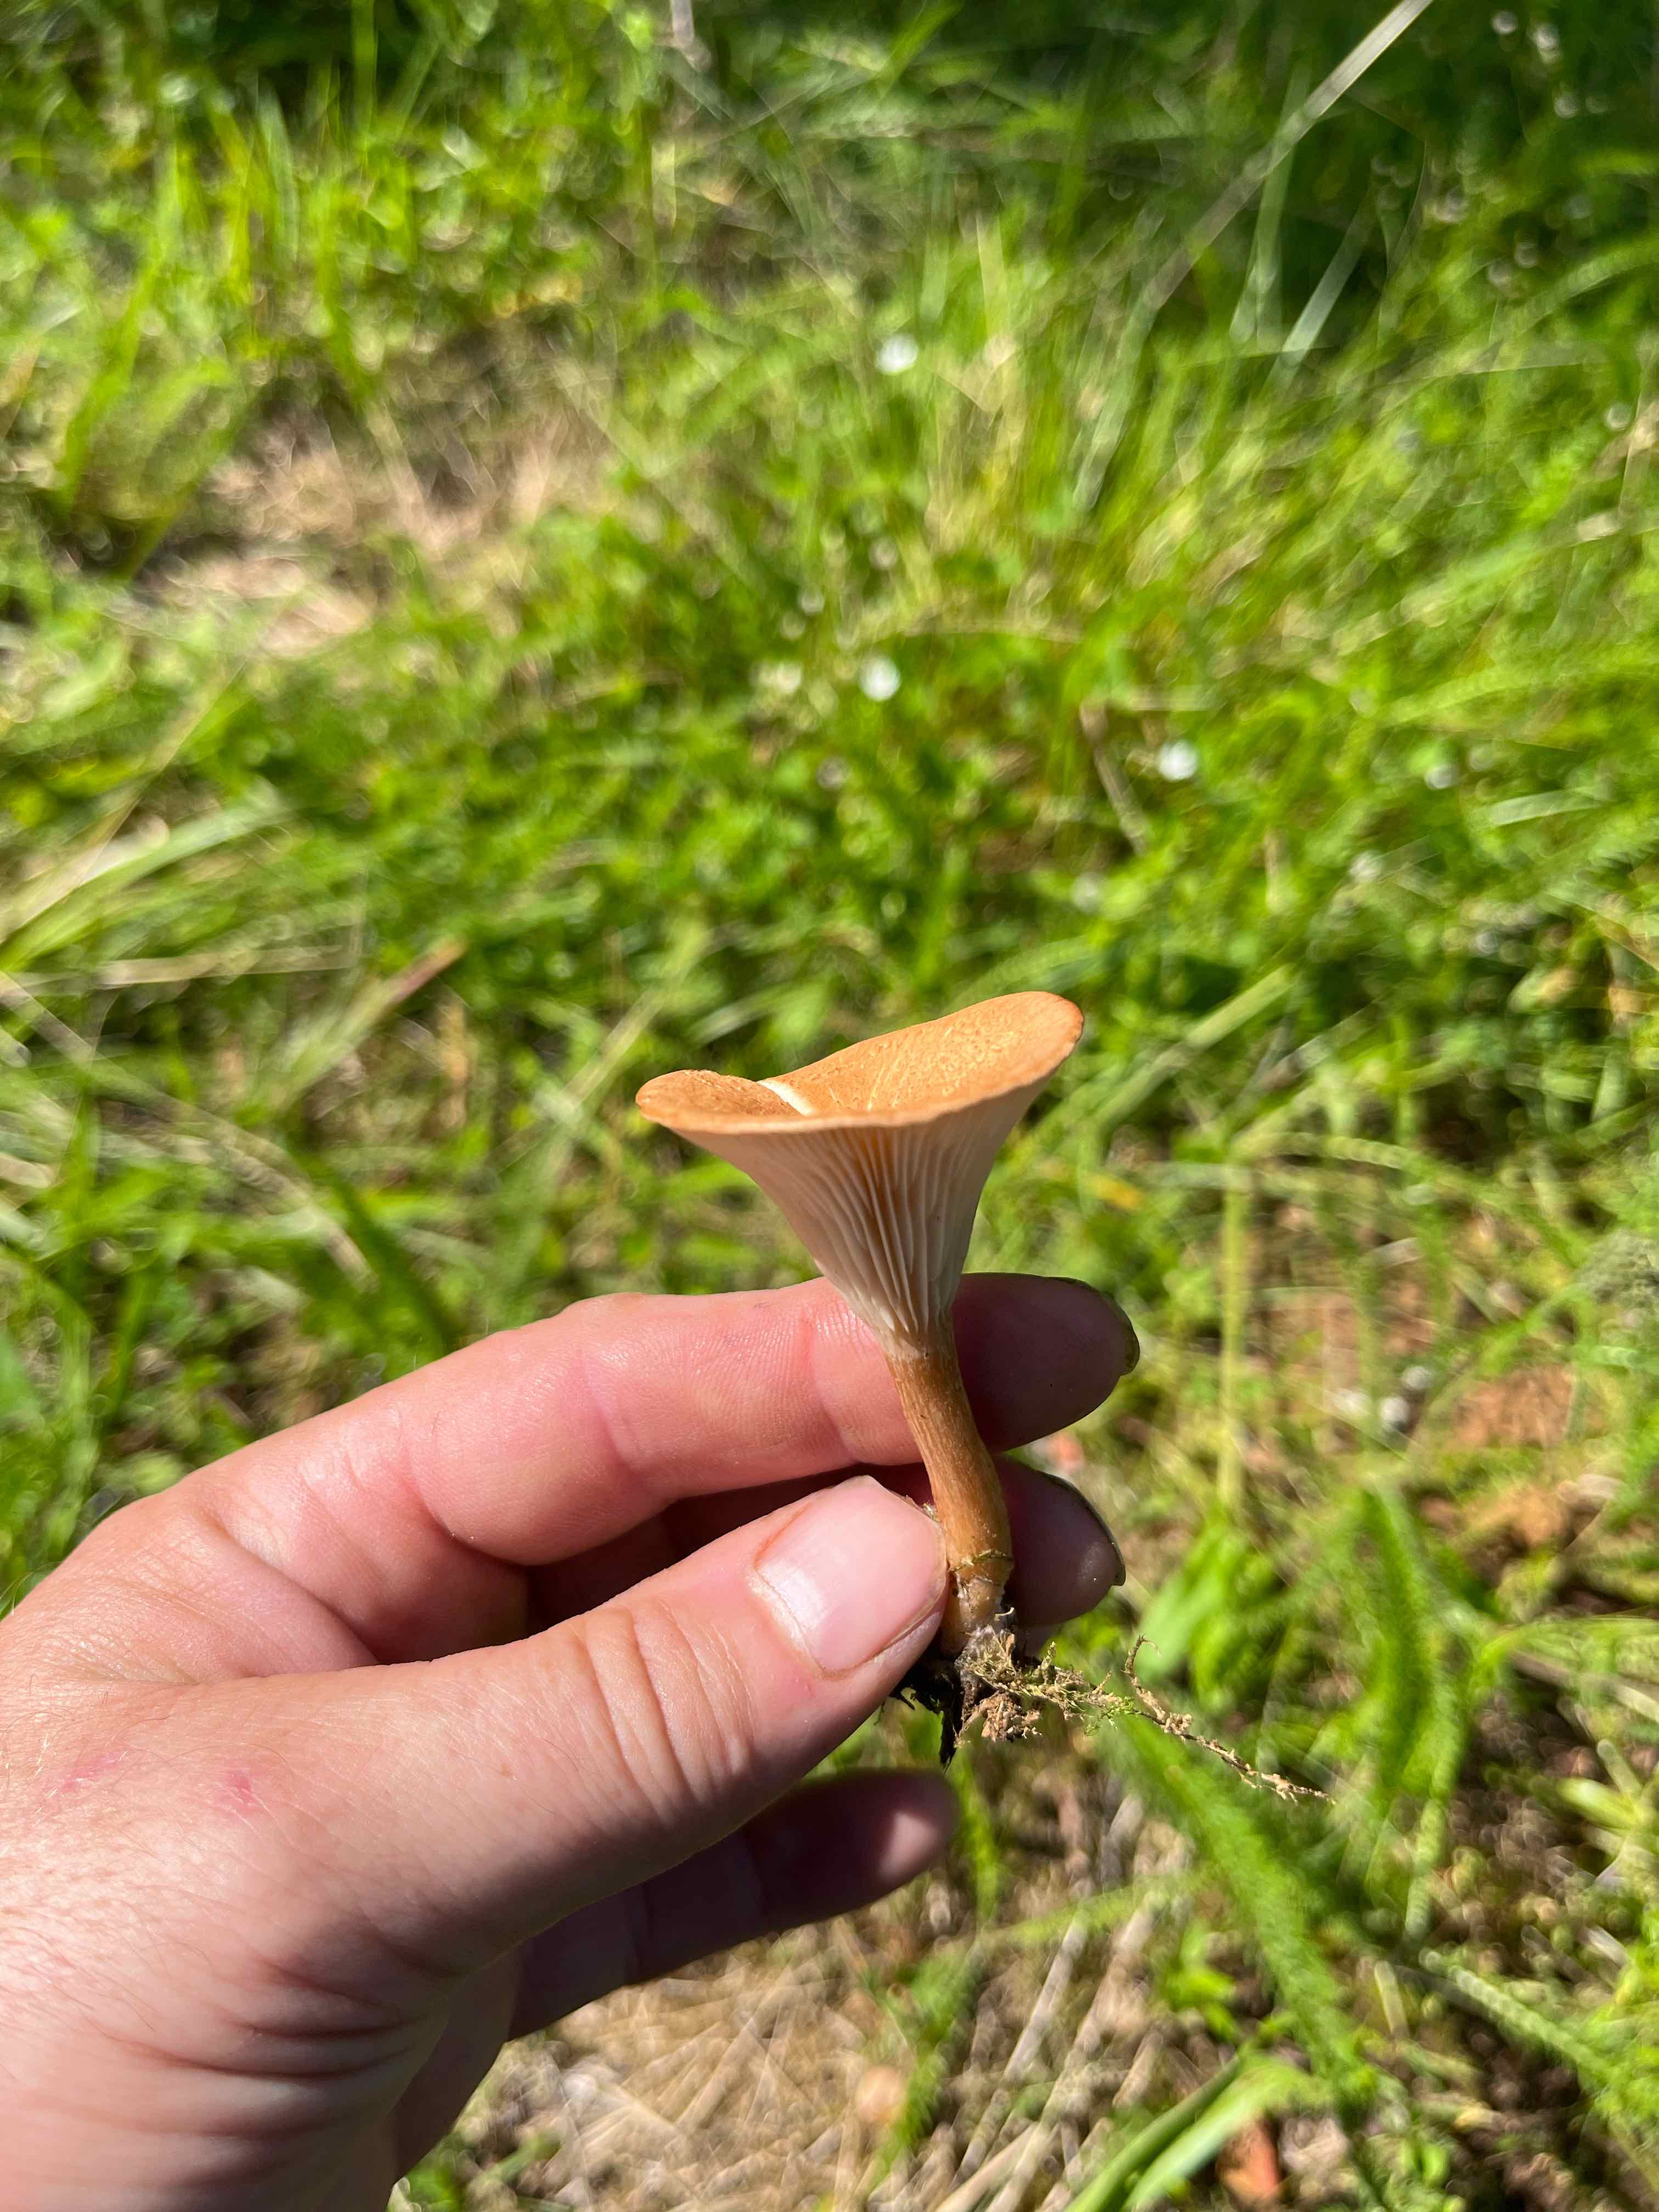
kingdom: Fungi
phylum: Basidiomycota
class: Agaricomycetes
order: Agaricales
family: Tricholomataceae
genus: Infundibulicybe
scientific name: Infundibulicybe squamulosa
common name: småskællet tragthat
